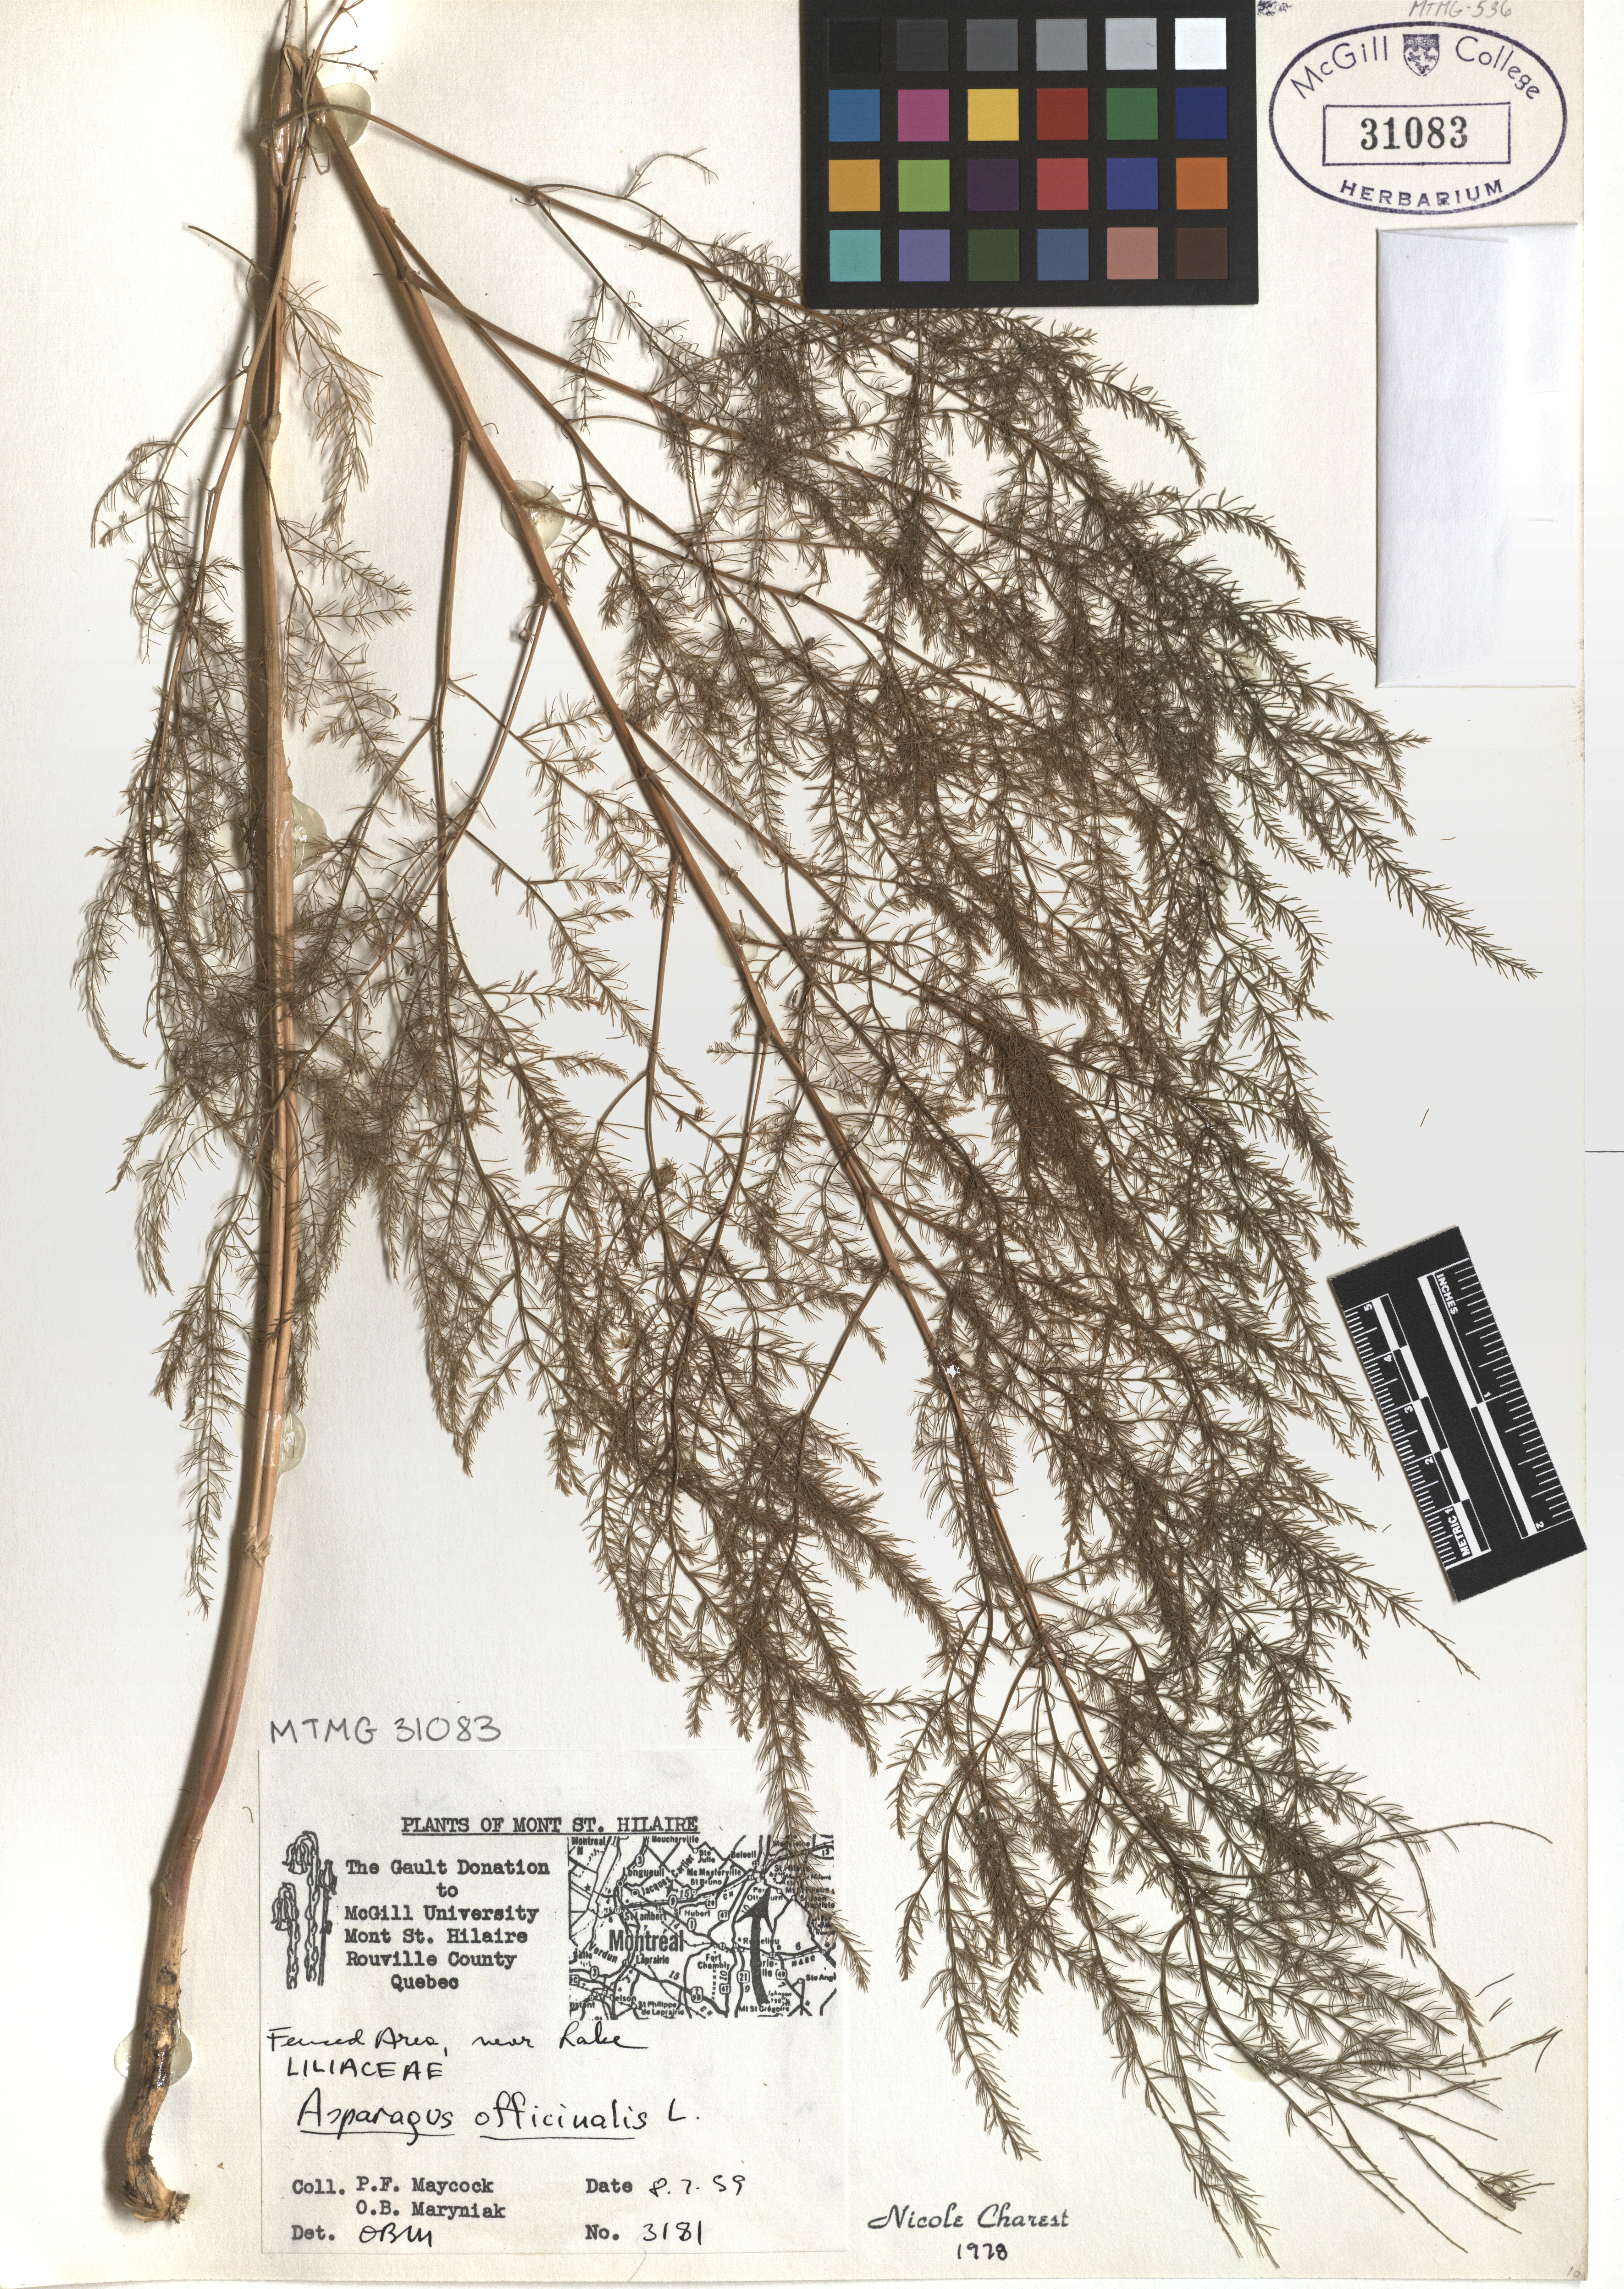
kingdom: Plantae
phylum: Tracheophyta
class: Liliopsida
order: Asparagales
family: Asparagaceae
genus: Asparagus
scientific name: Asparagus officinalis
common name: Garden asparagus
